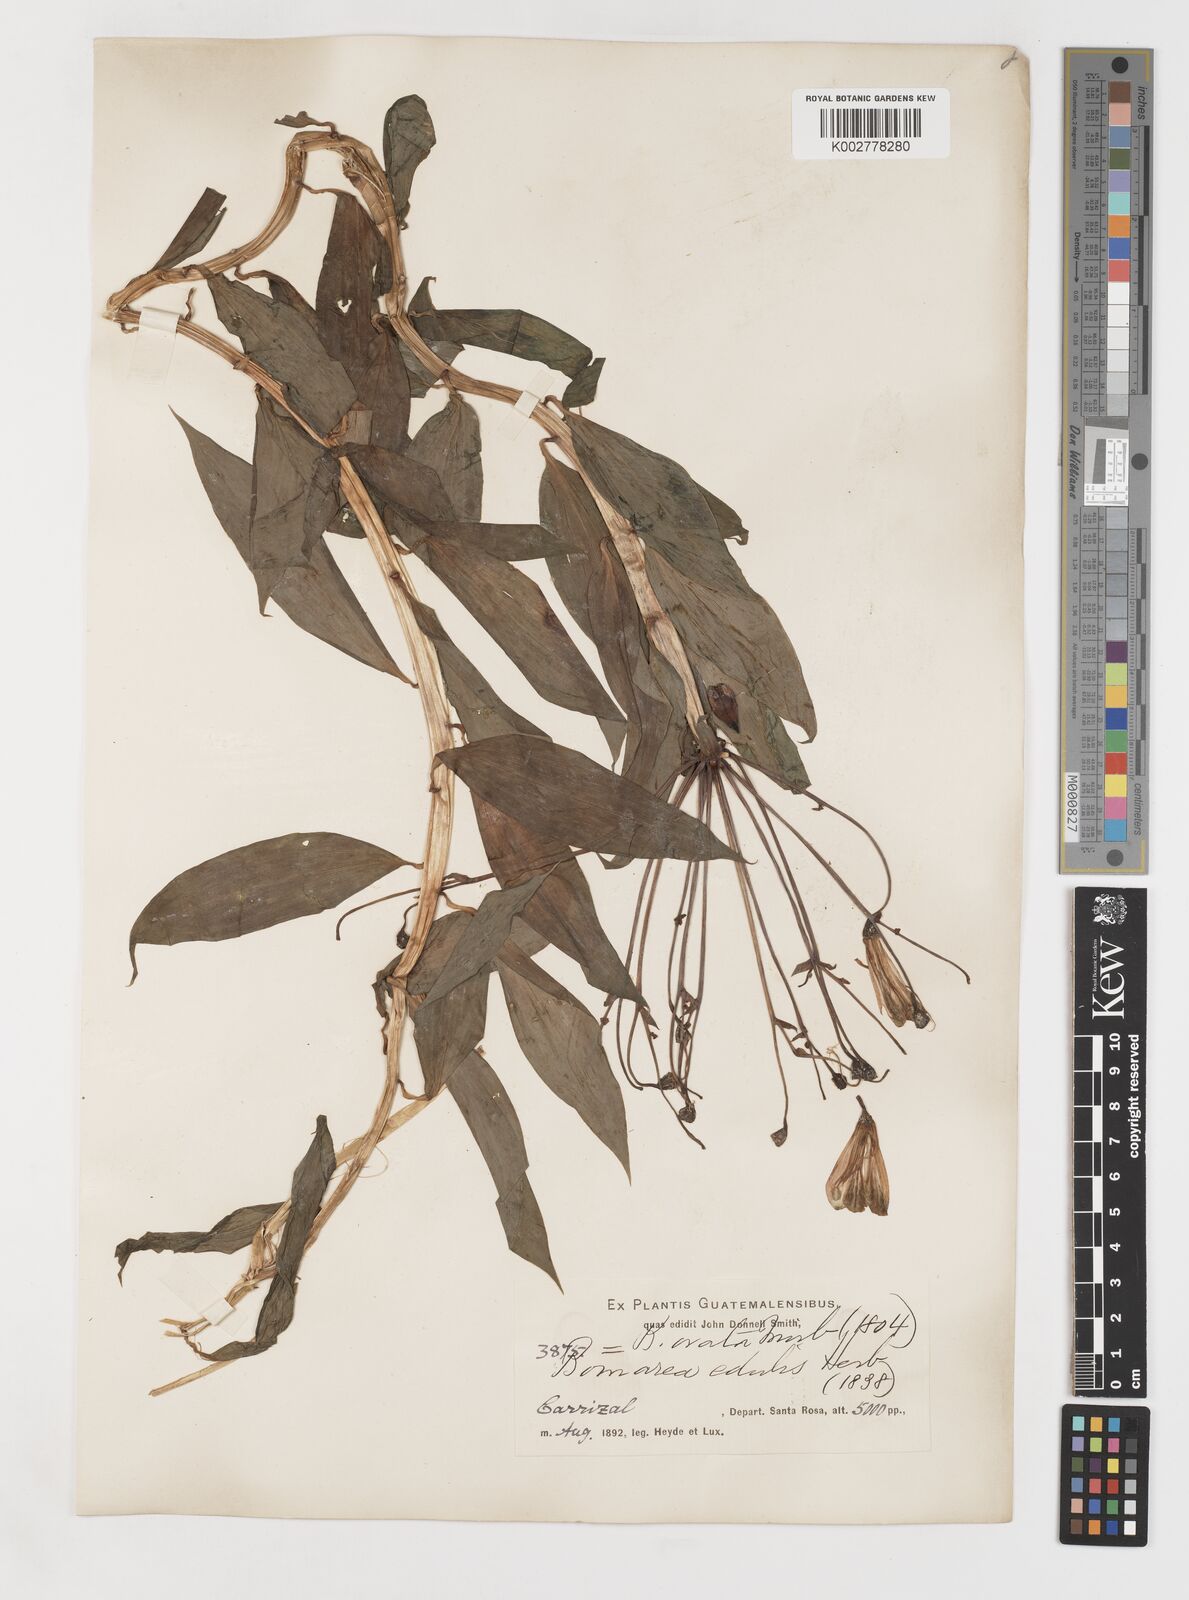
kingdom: Plantae
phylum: Tracheophyta
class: Liliopsida
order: Liliales
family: Alstroemeriaceae
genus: Bomarea
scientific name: Bomarea edulis
